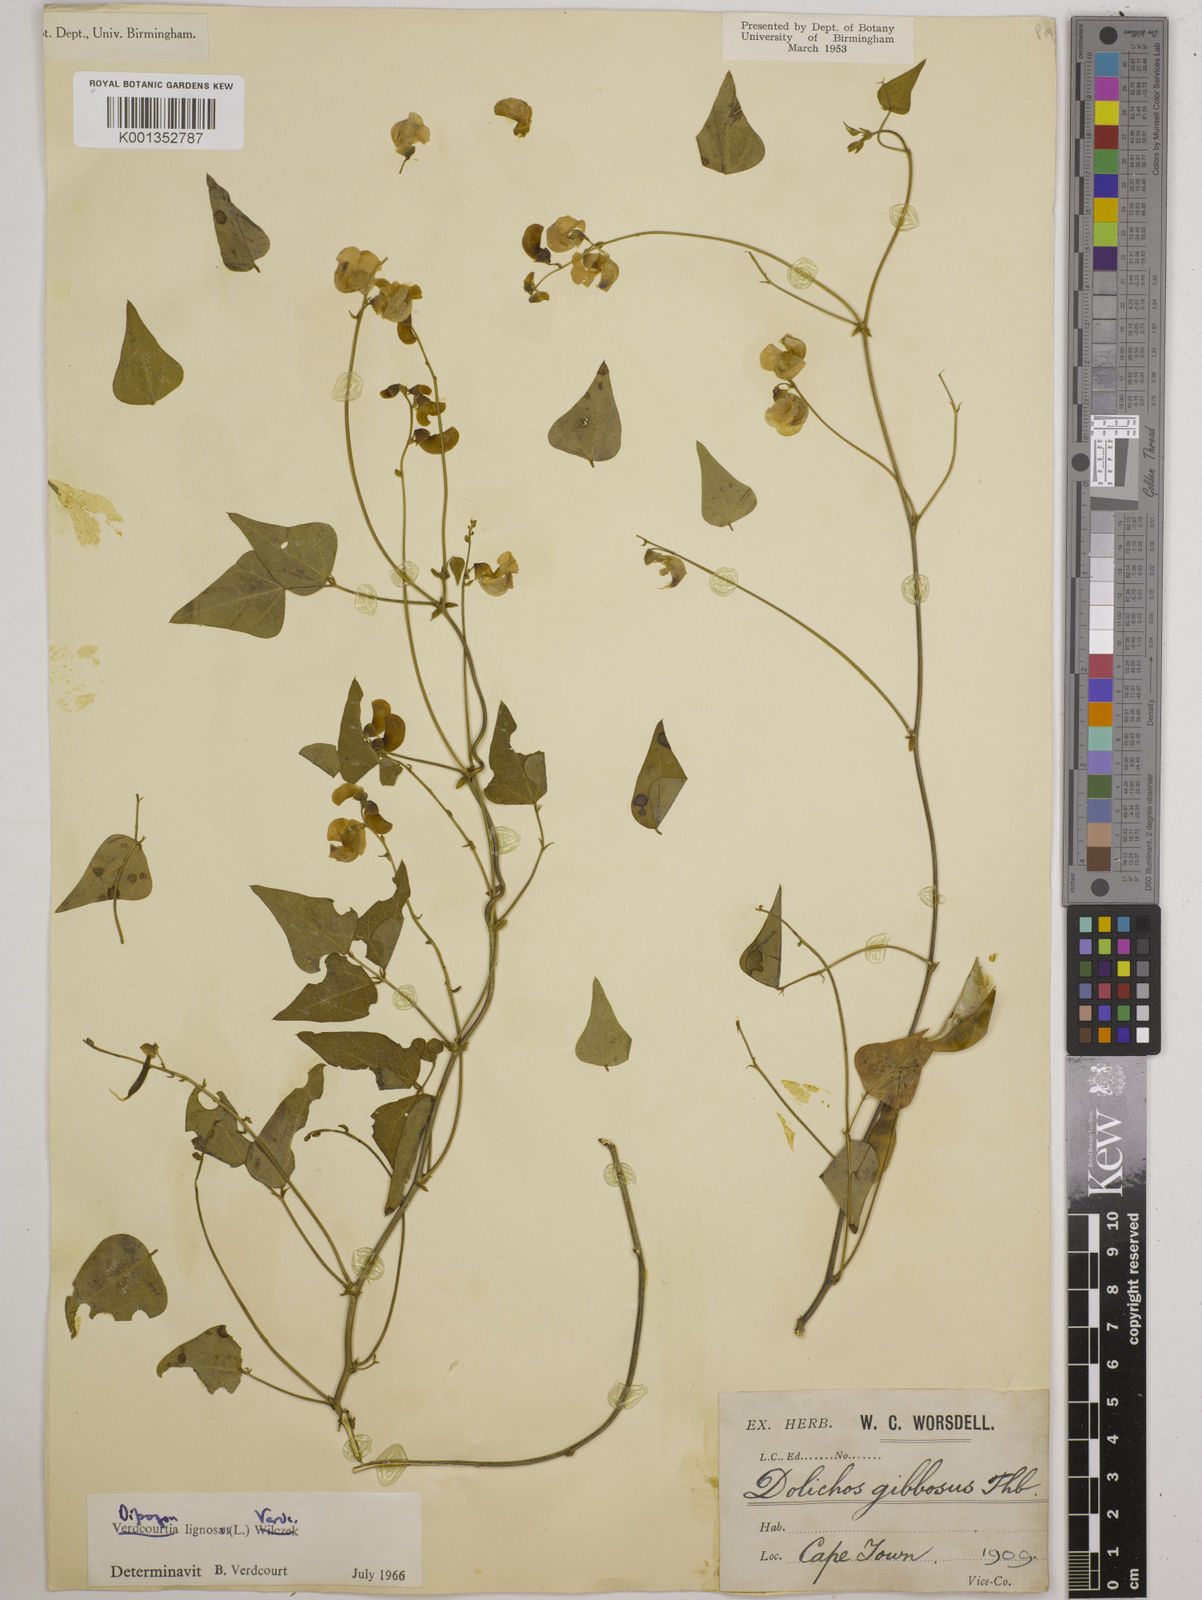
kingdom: Plantae
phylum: Tracheophyta
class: Magnoliopsida
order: Fabales
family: Fabaceae
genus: Dipogon
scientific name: Dipogon lignosus
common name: Okie bean
